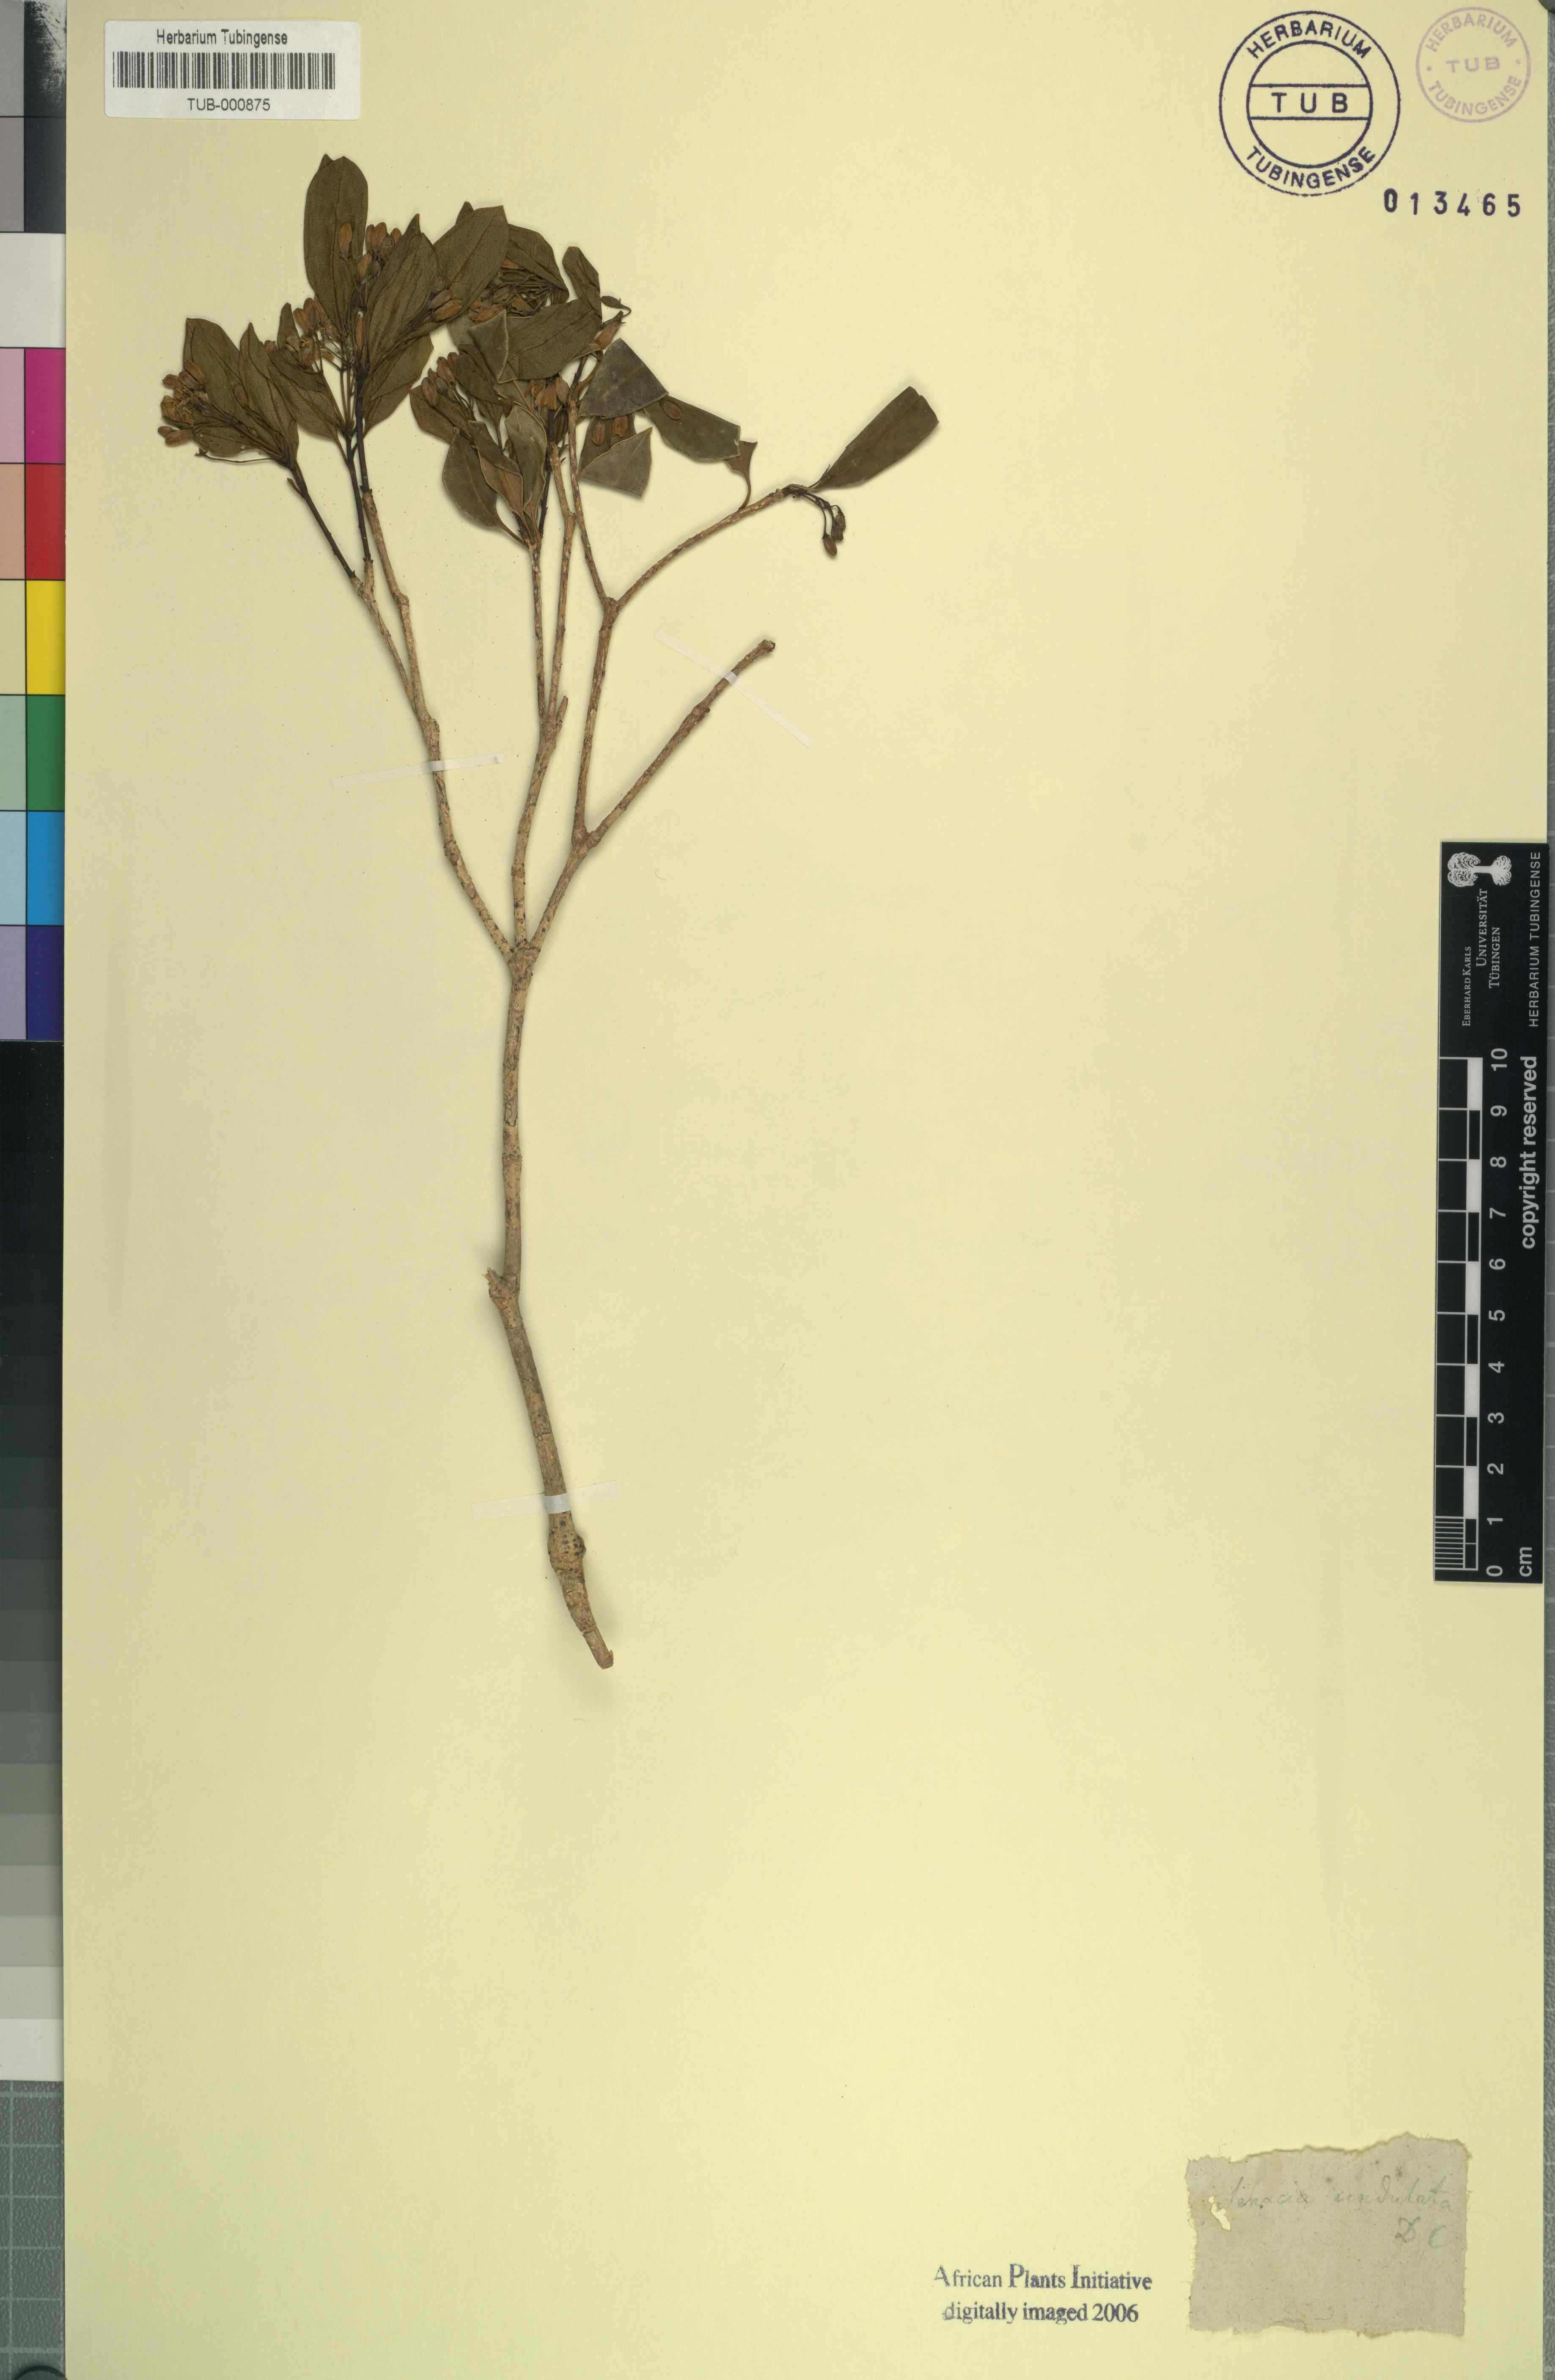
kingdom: Plantae
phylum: Tracheophyta
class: Magnoliopsida
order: Apiales
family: Pittosporaceae
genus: Pittosporum
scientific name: Pittosporum senacia
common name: Cheesewood
